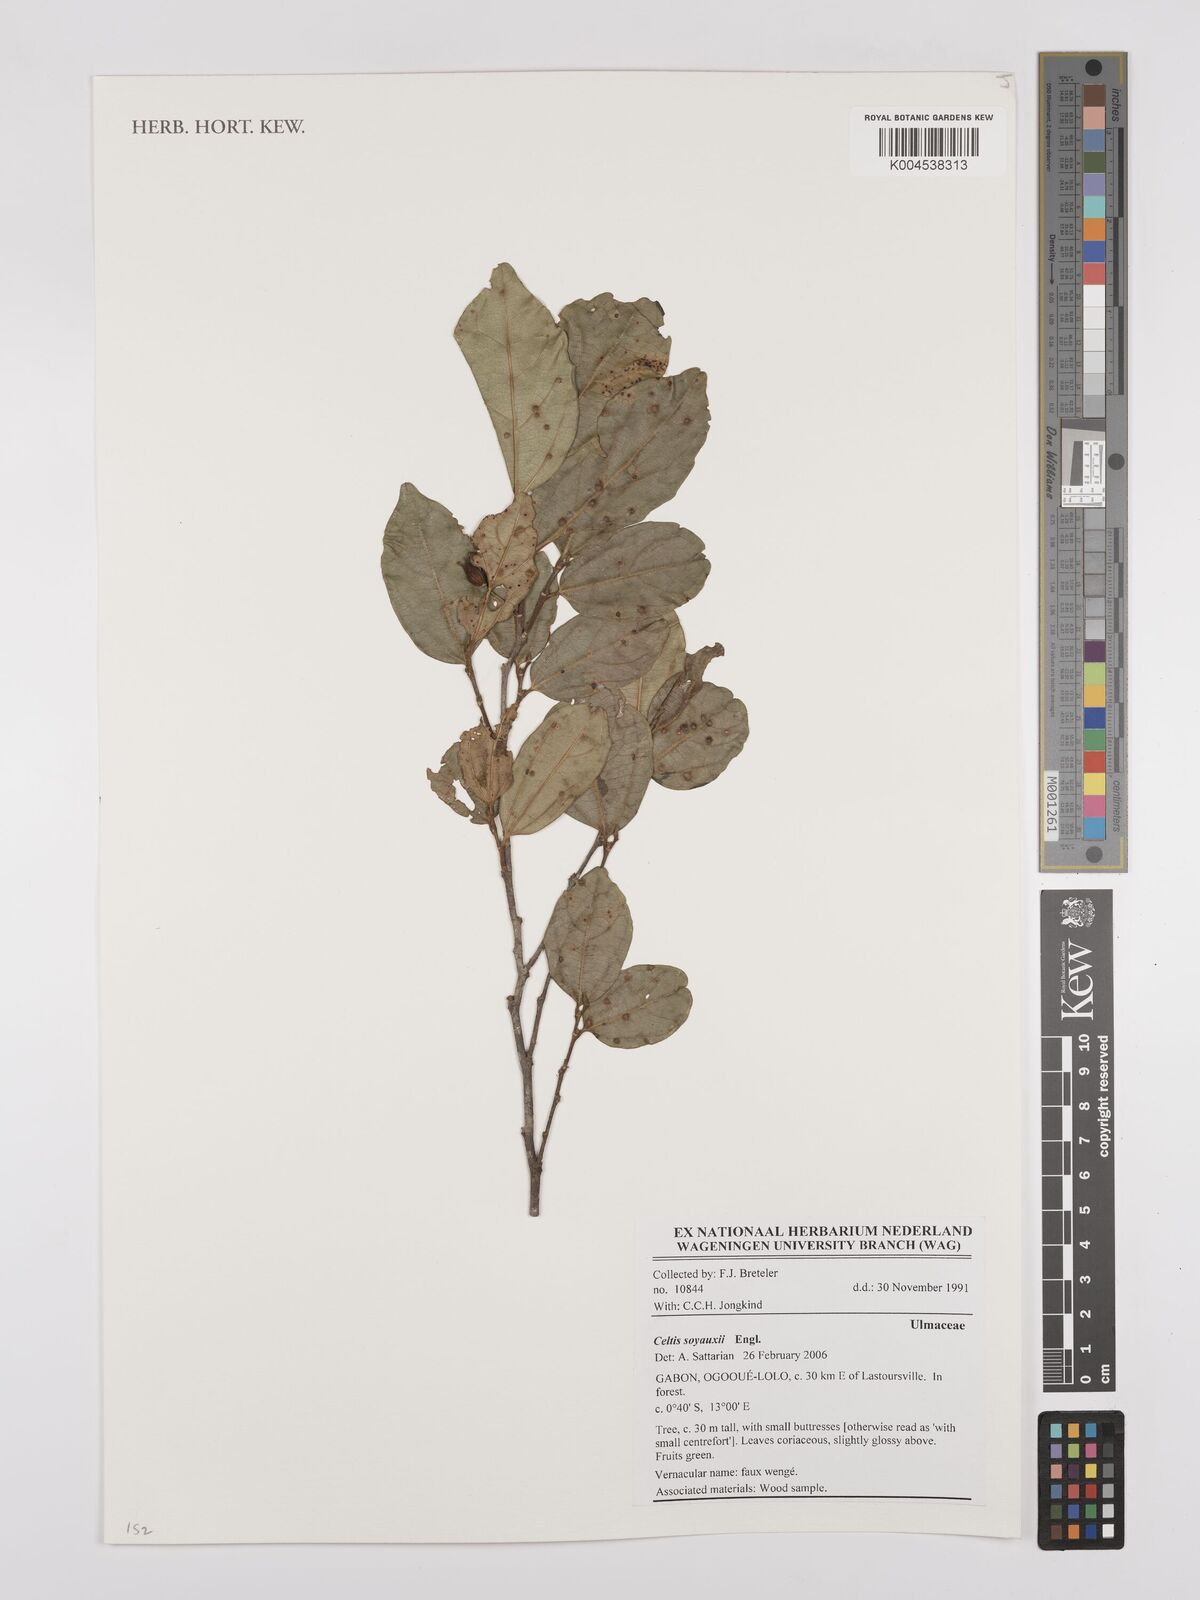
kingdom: Plantae
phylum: Tracheophyta
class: Magnoliopsida
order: Rosales
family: Cannabaceae
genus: Celtis
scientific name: Celtis mildbraedii
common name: Red-fruited stinkwood
